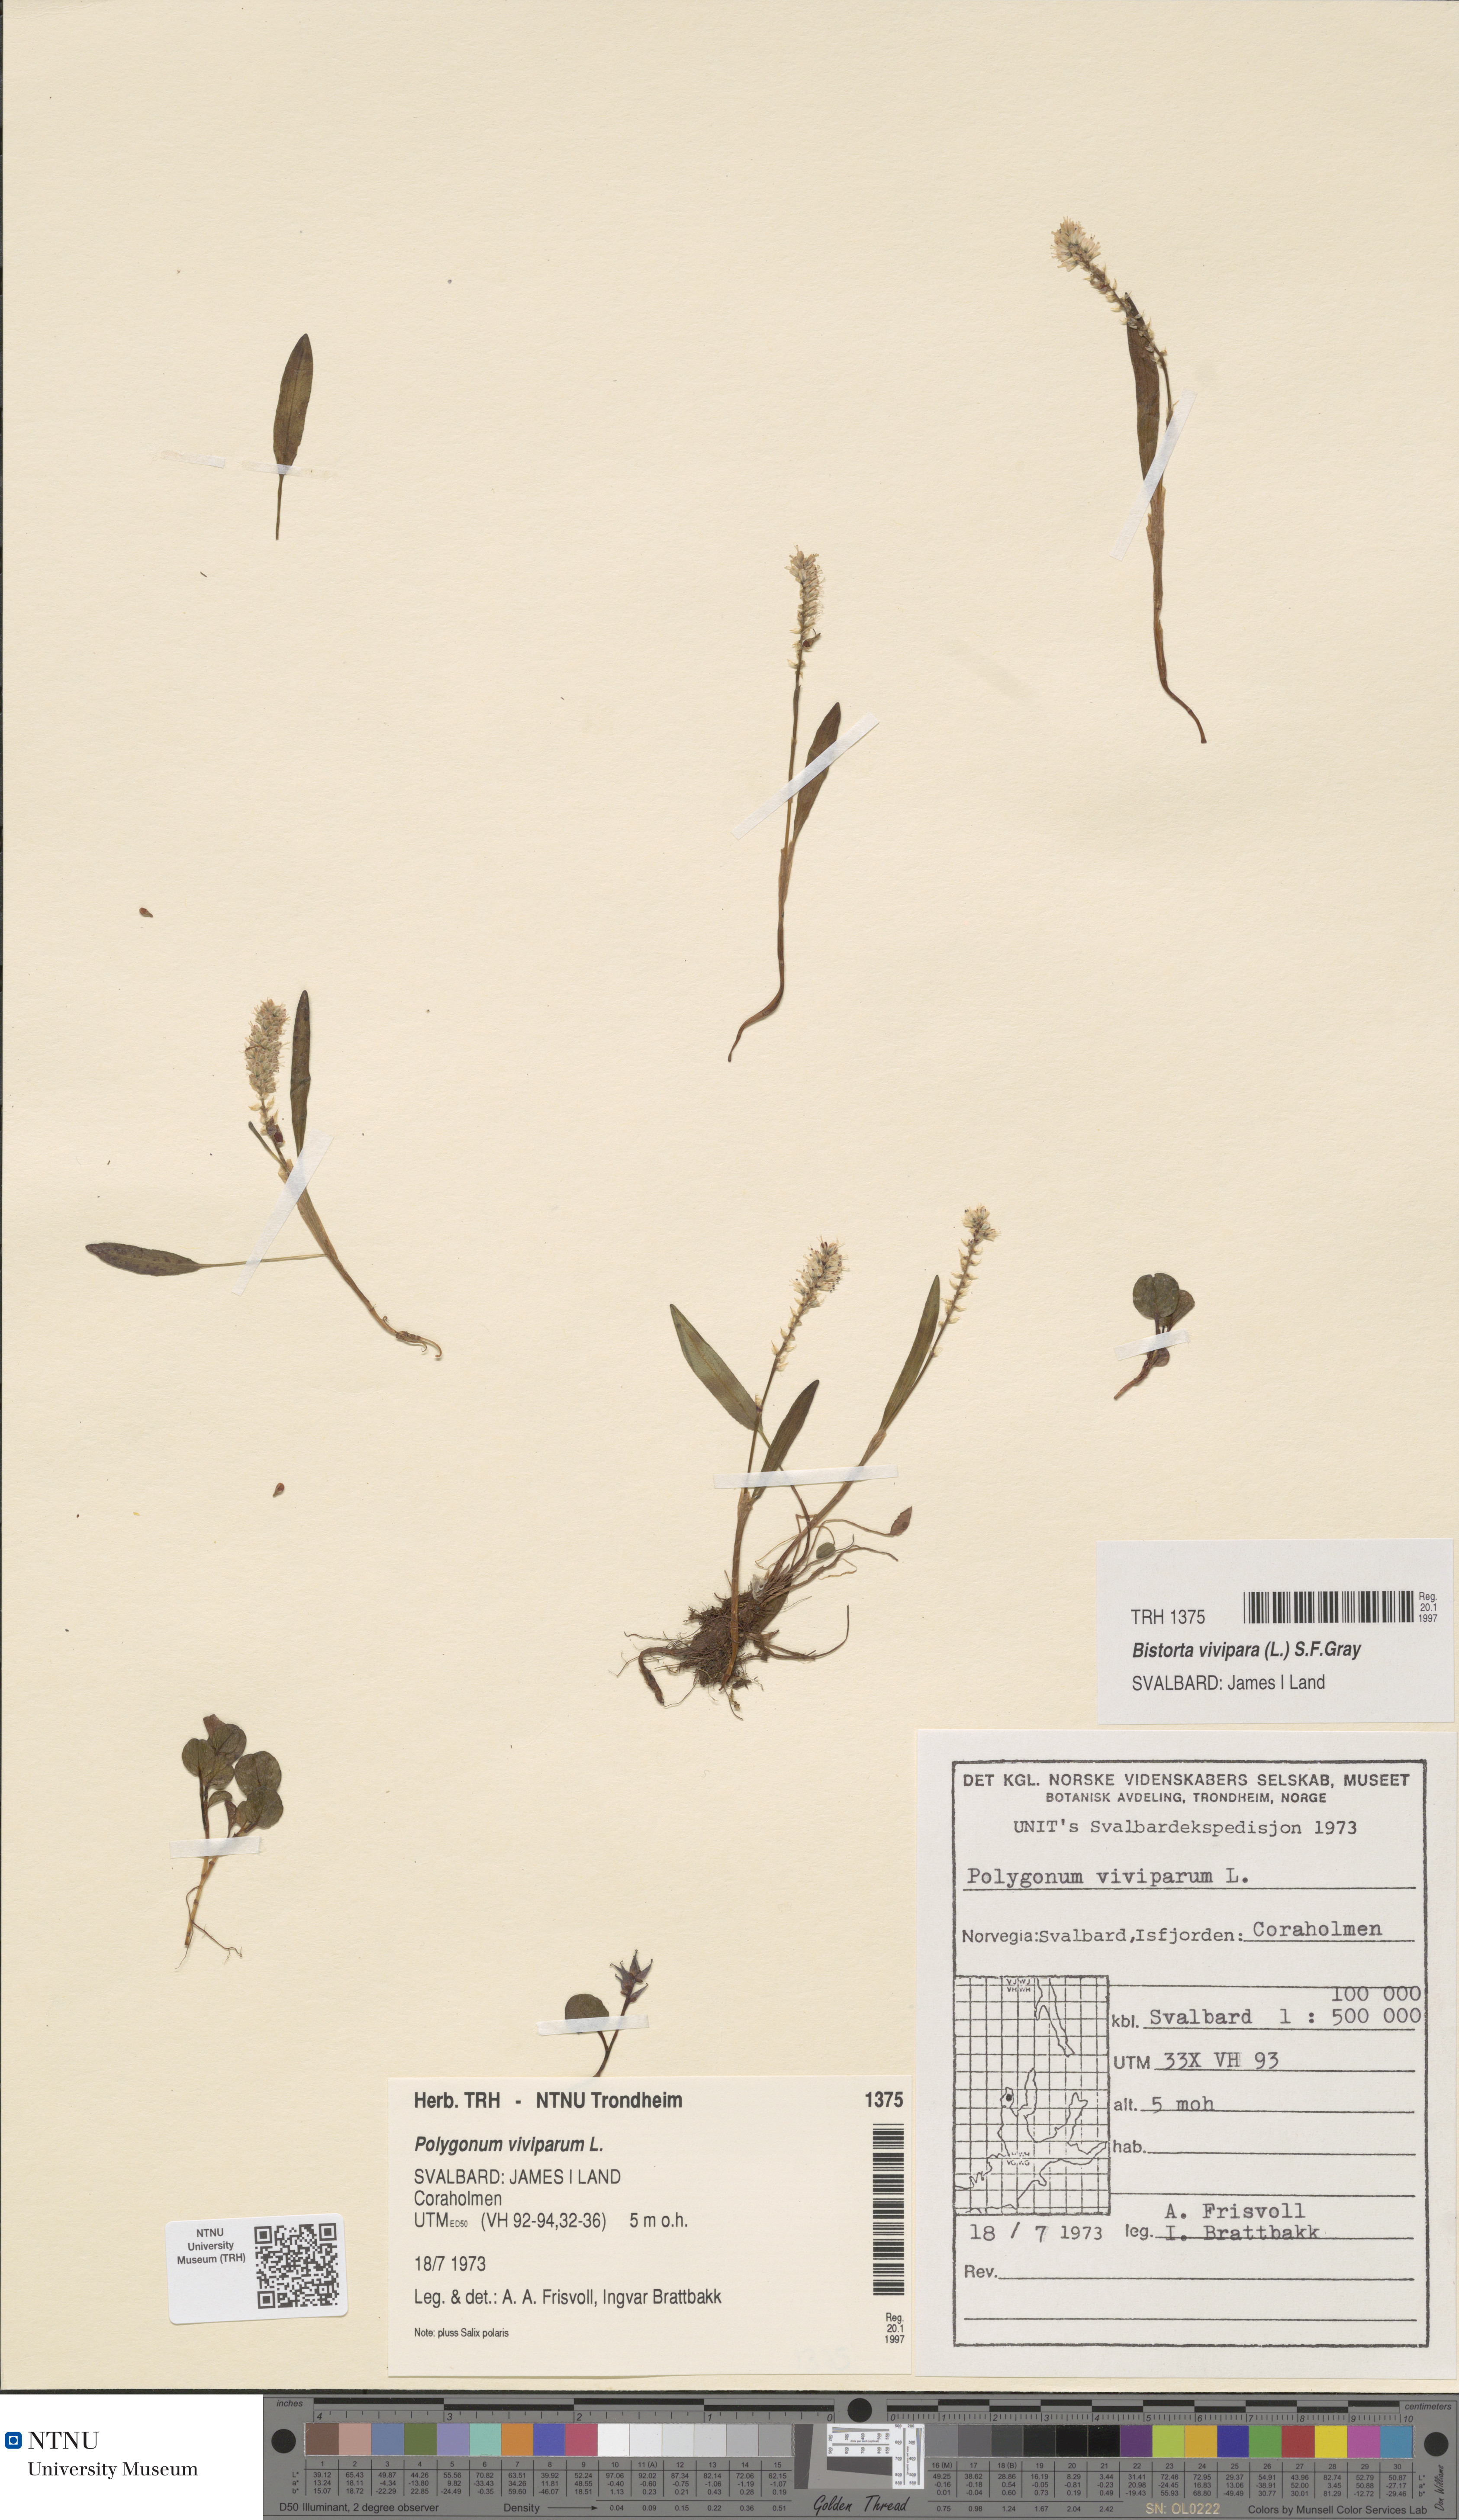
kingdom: Plantae
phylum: Tracheophyta
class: Magnoliopsida
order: Caryophyllales
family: Polygonaceae
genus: Bistorta
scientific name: Bistorta vivipara
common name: Alpine bistort
